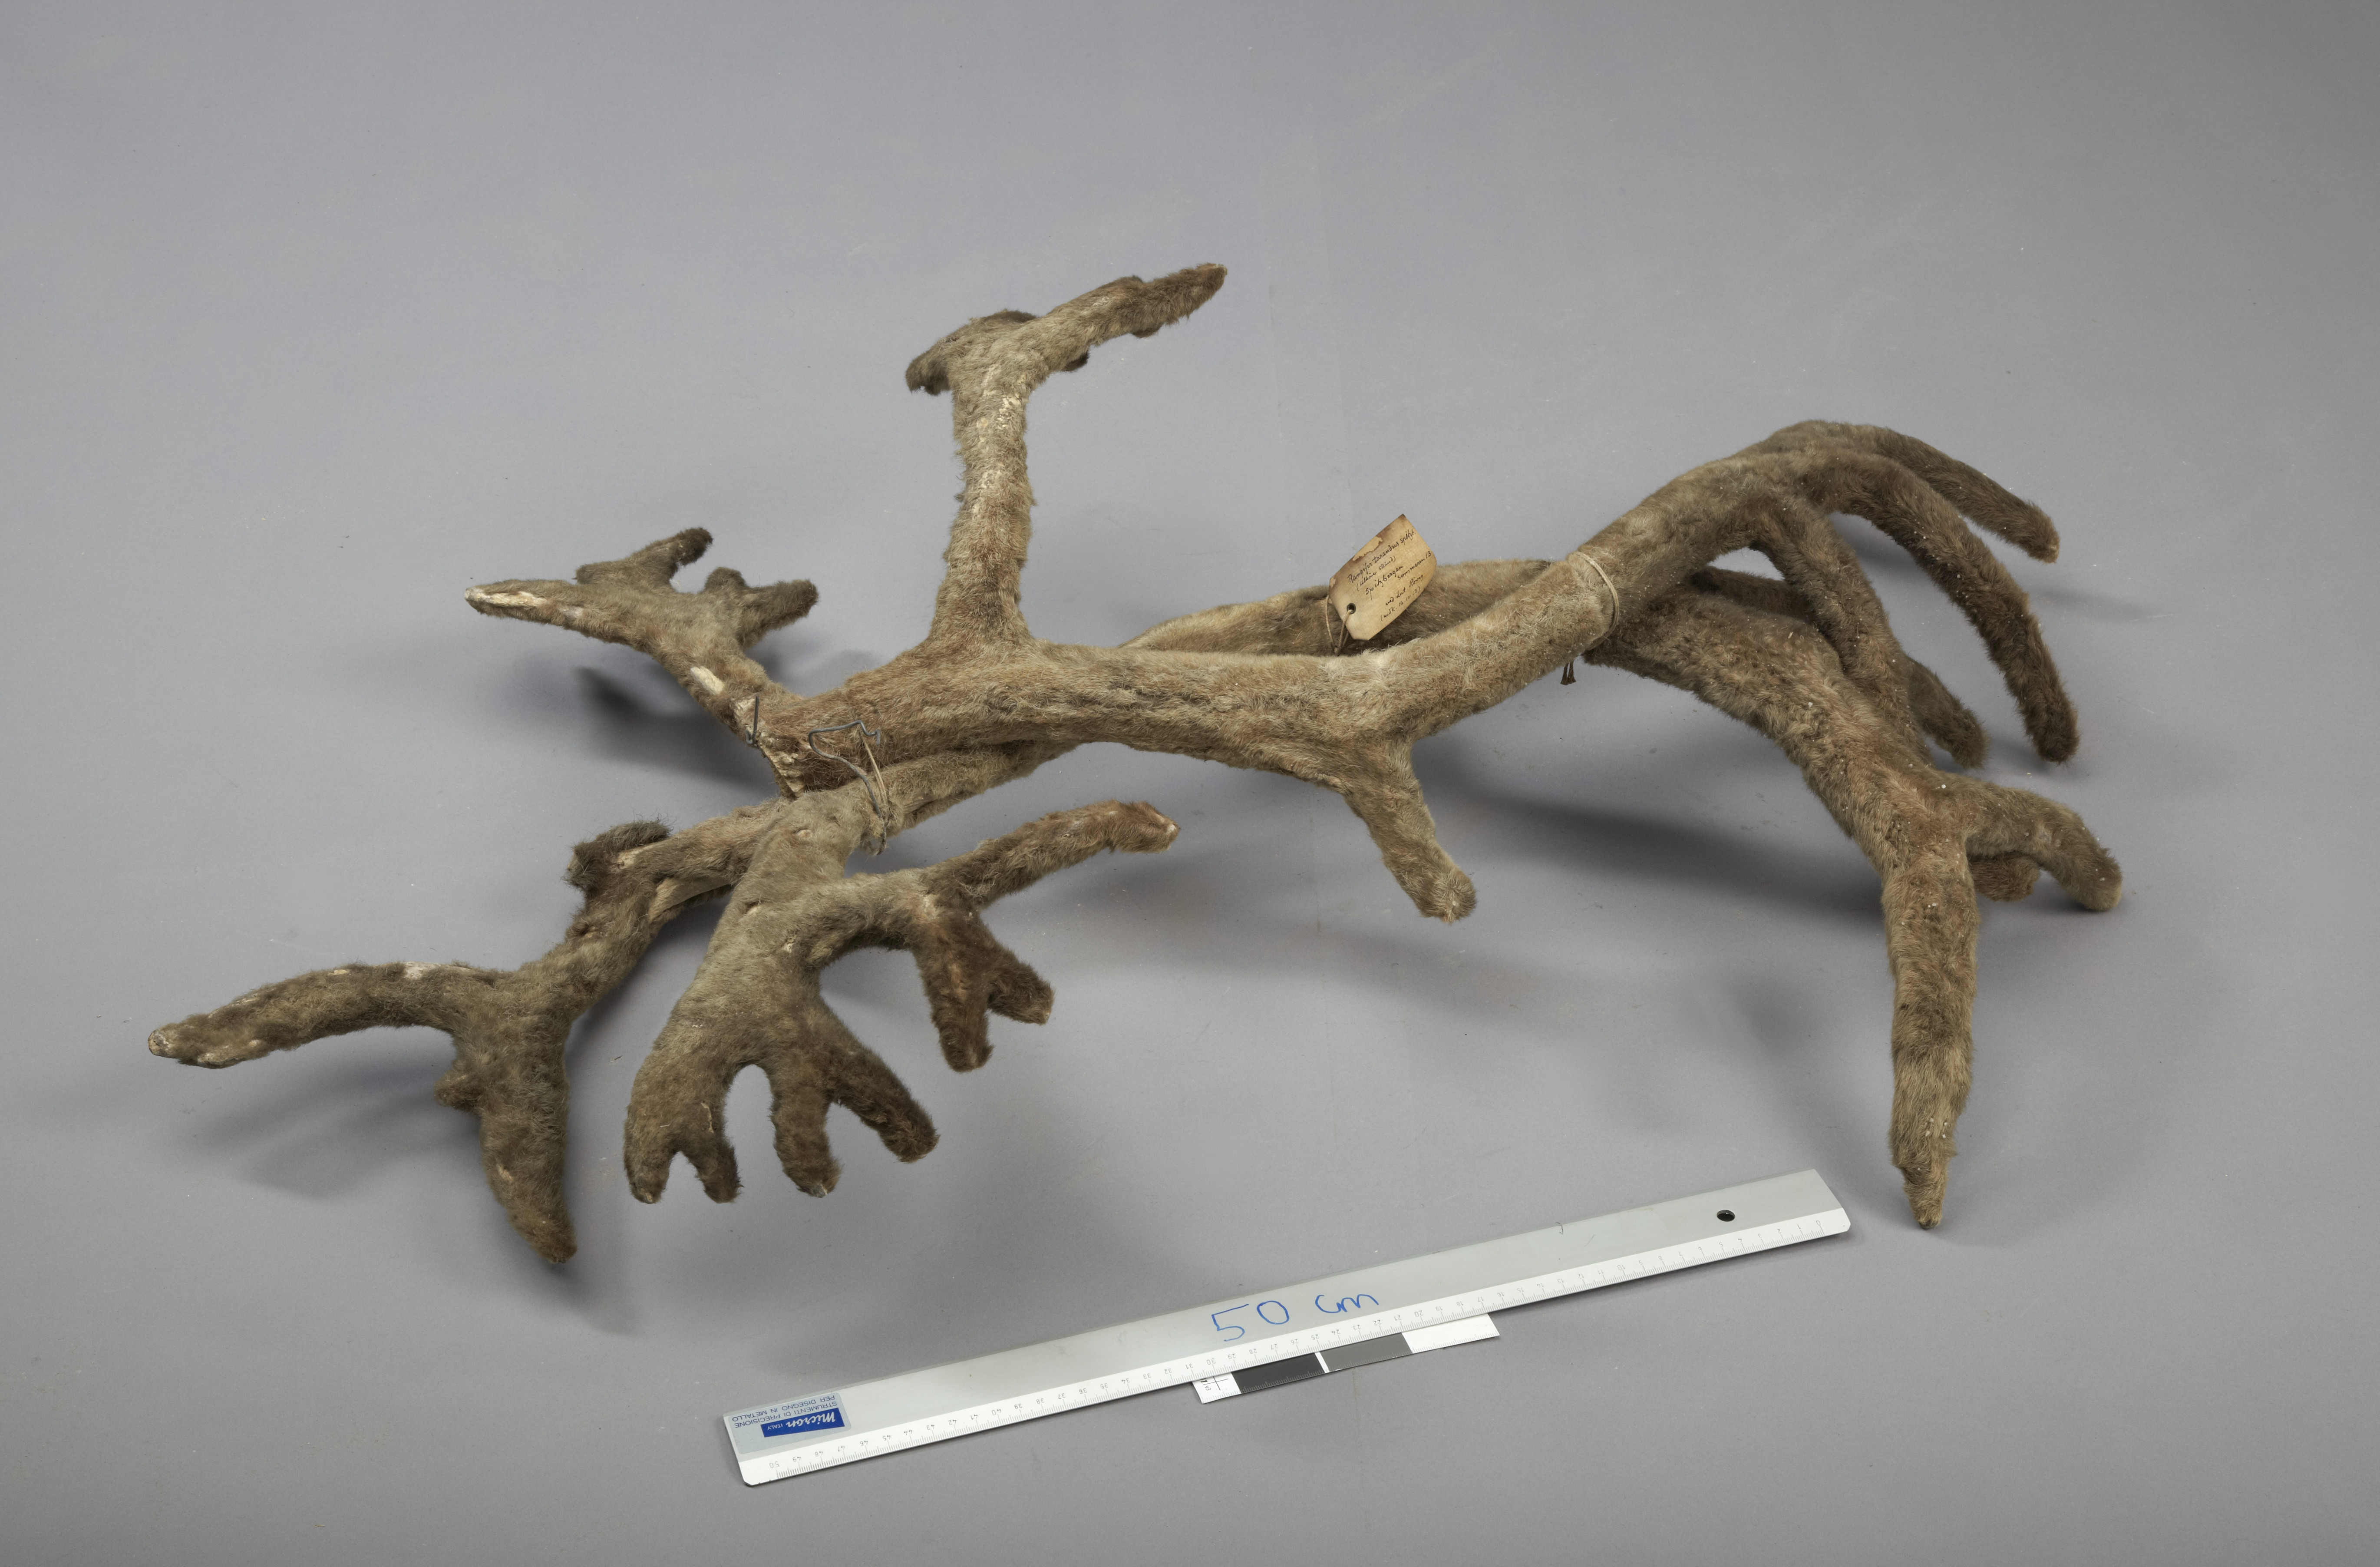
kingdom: Animalia
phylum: Chordata
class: Mammalia
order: Artiodactyla
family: Cervidae
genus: Rangifer
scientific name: Rangifer tarandus
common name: Reindeer
